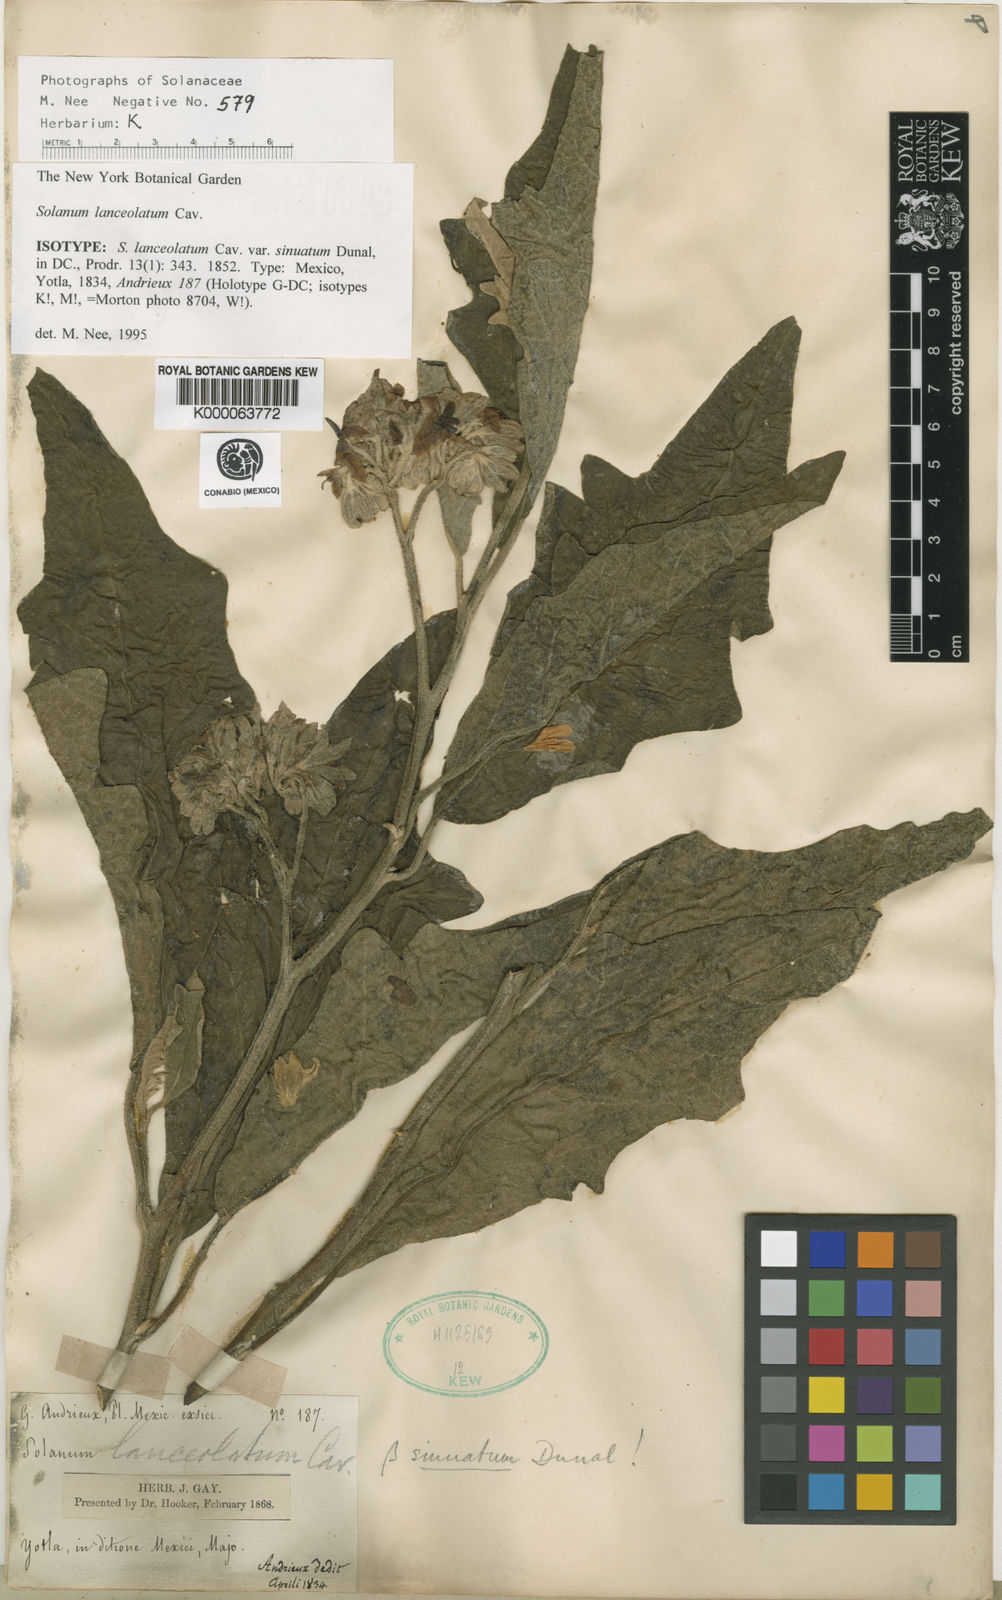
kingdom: Plantae
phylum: Tracheophyta
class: Magnoliopsida
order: Solanales
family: Solanaceae
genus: Solanum
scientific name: Solanum lanceolatum
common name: Orangeberry nightshade
